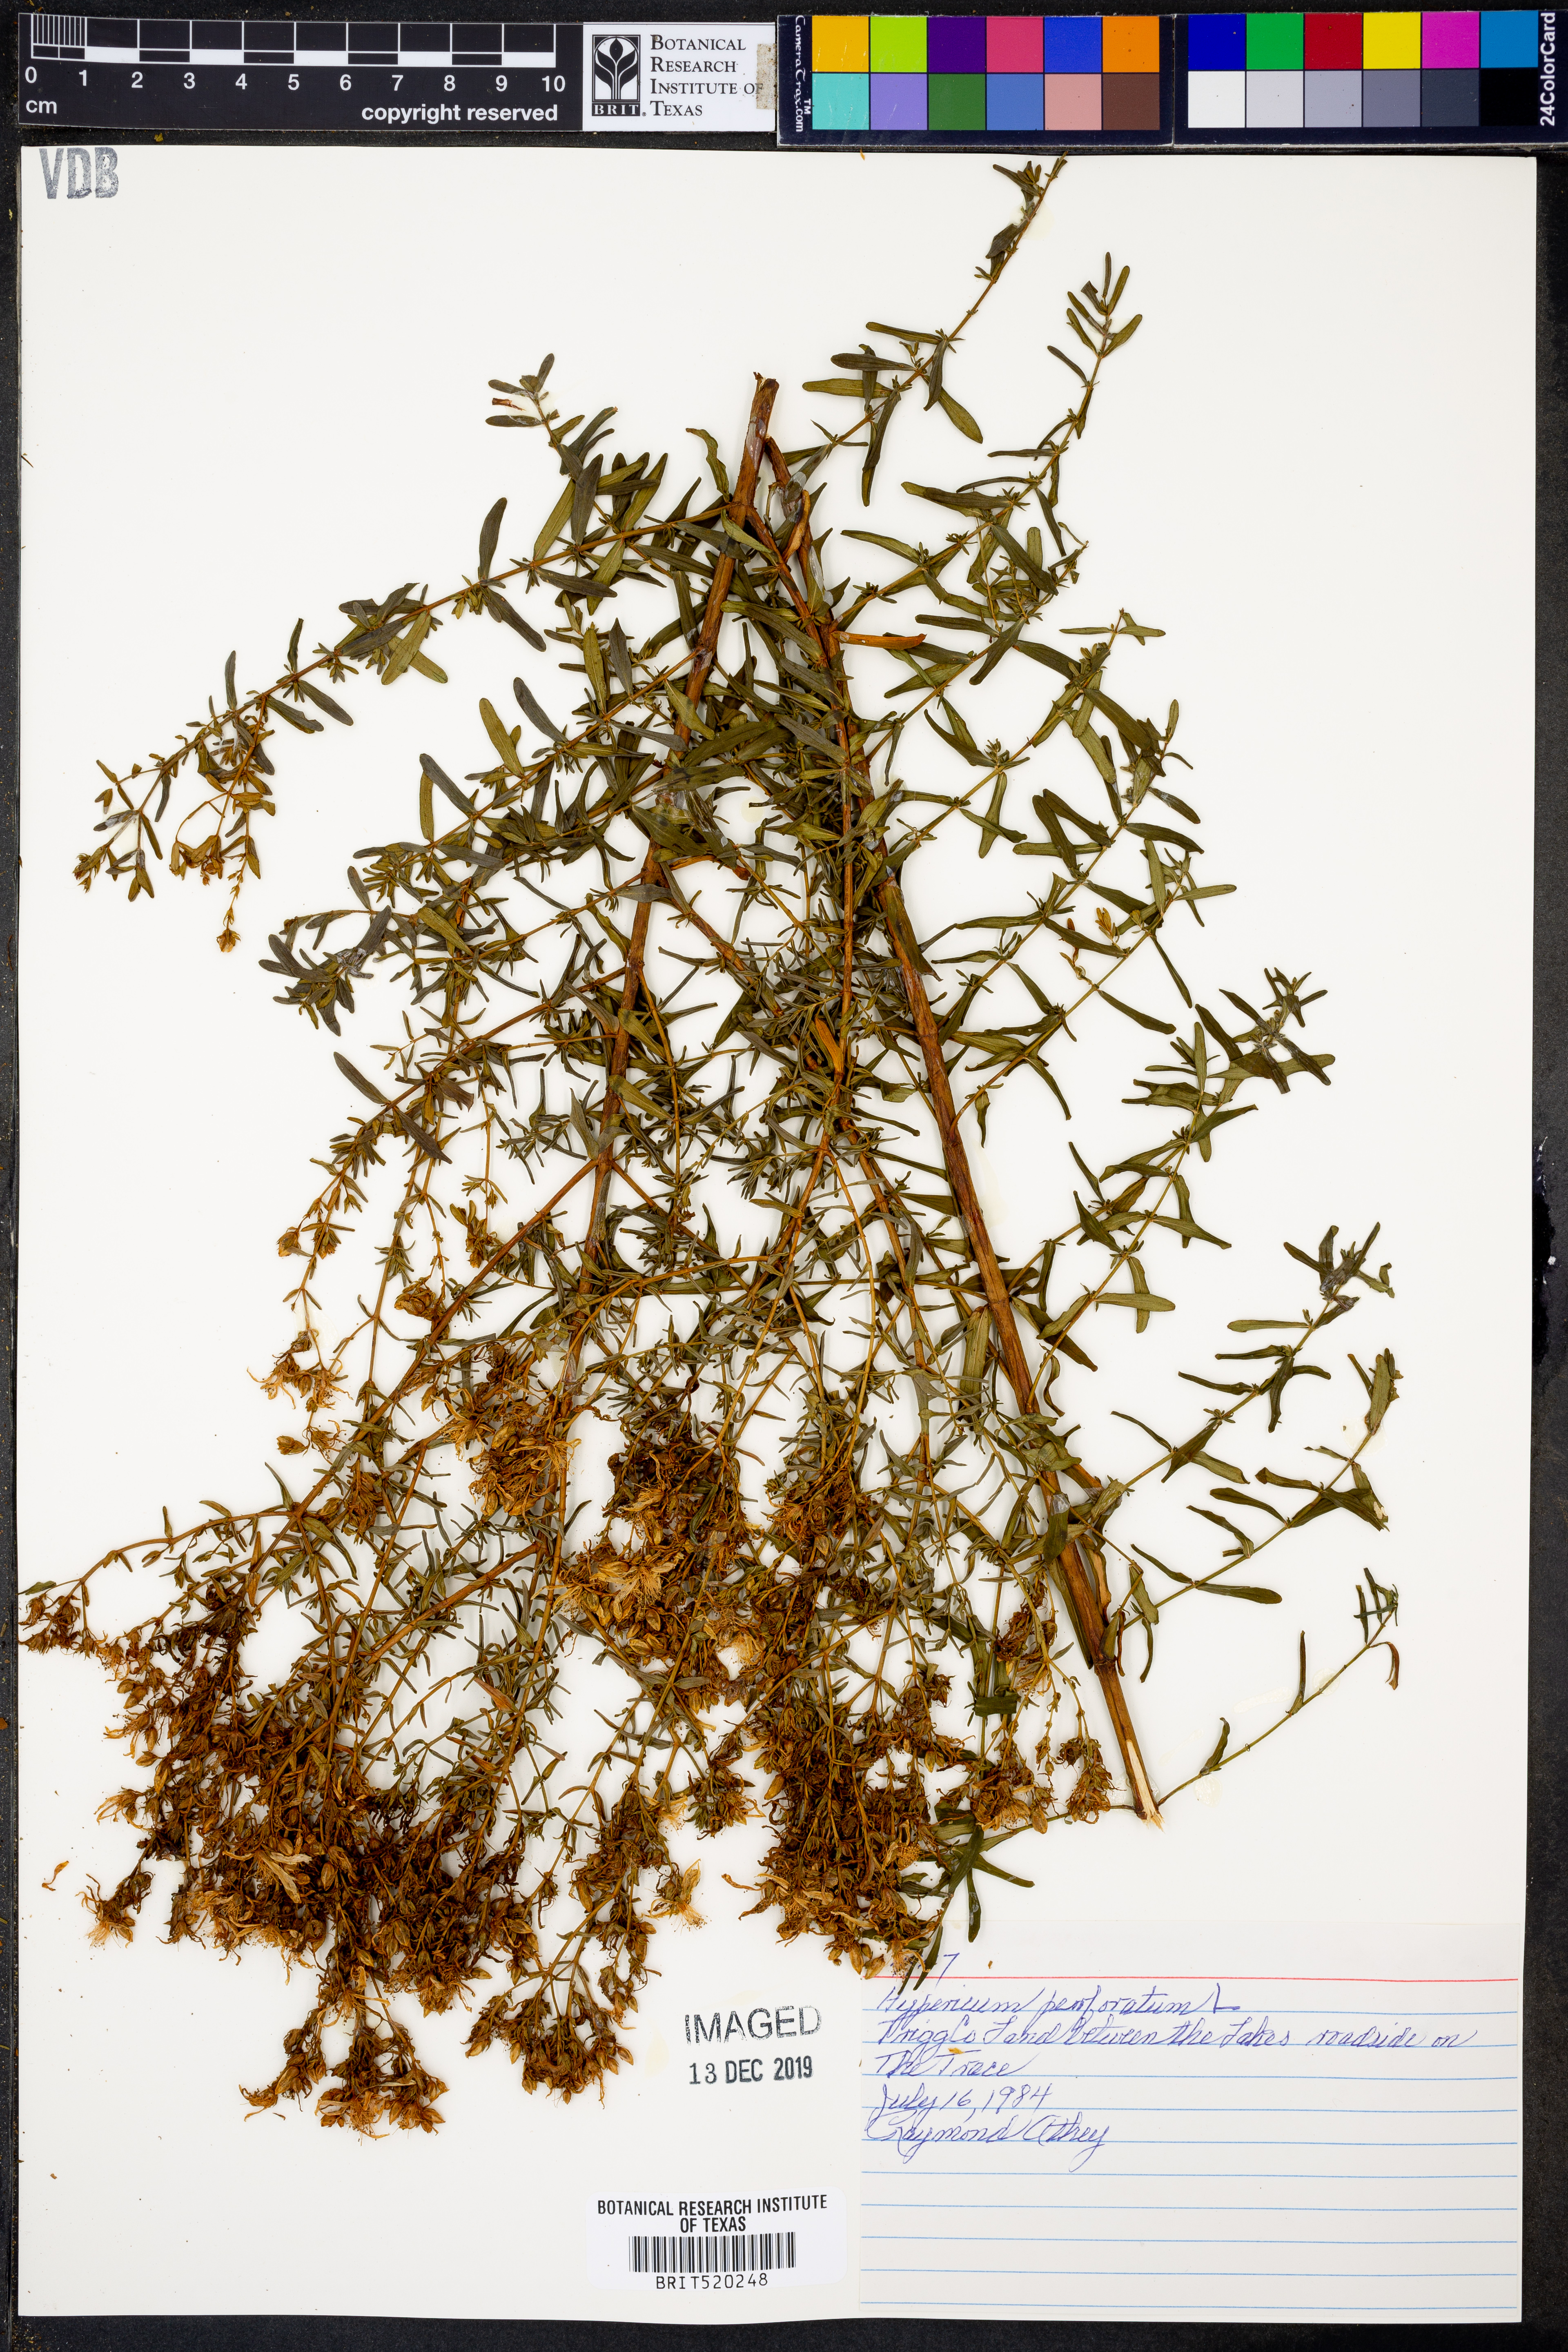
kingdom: Plantae
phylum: Tracheophyta
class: Magnoliopsida
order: Malpighiales
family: Hypericaceae
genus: Hypericum
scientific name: Hypericum perforatum
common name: Common st. johnswort
